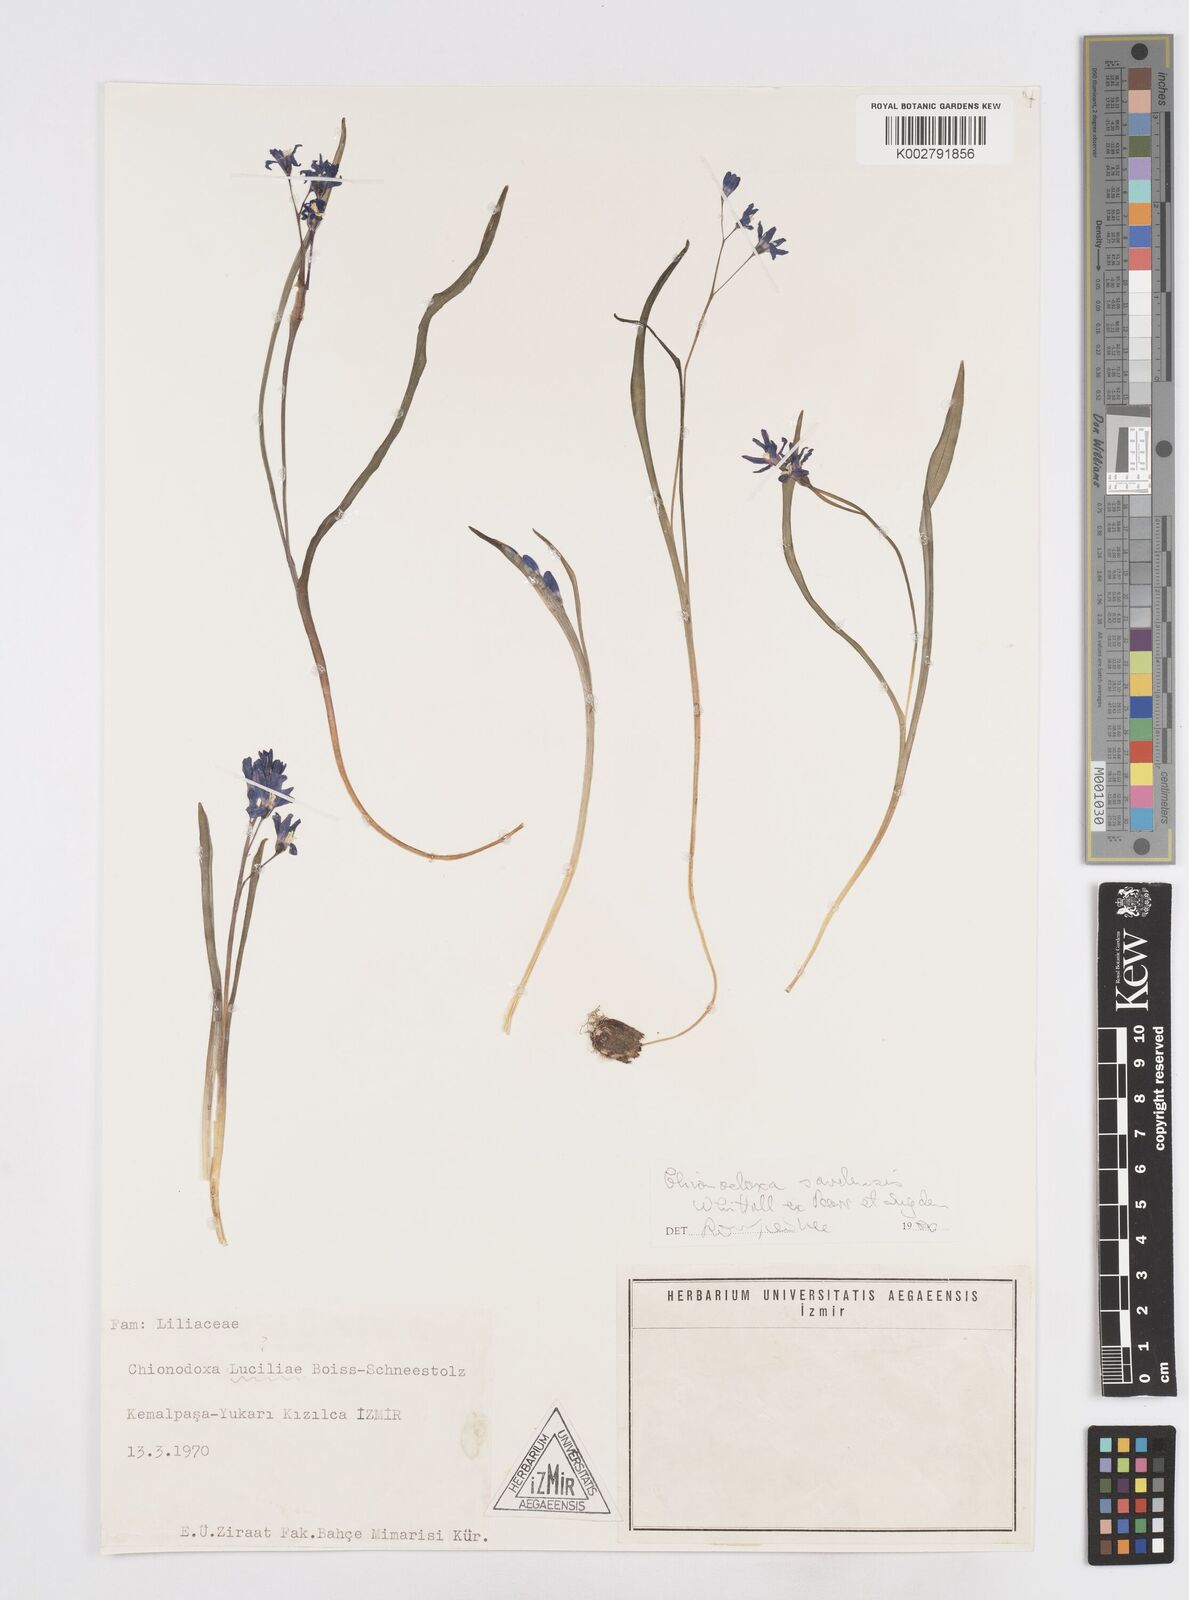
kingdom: Plantae
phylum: Tracheophyta
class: Liliopsida
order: Asparagales
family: Asparagaceae
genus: Scilla
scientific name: Scilla sardensis
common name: Lesser glory-of-the-snow
